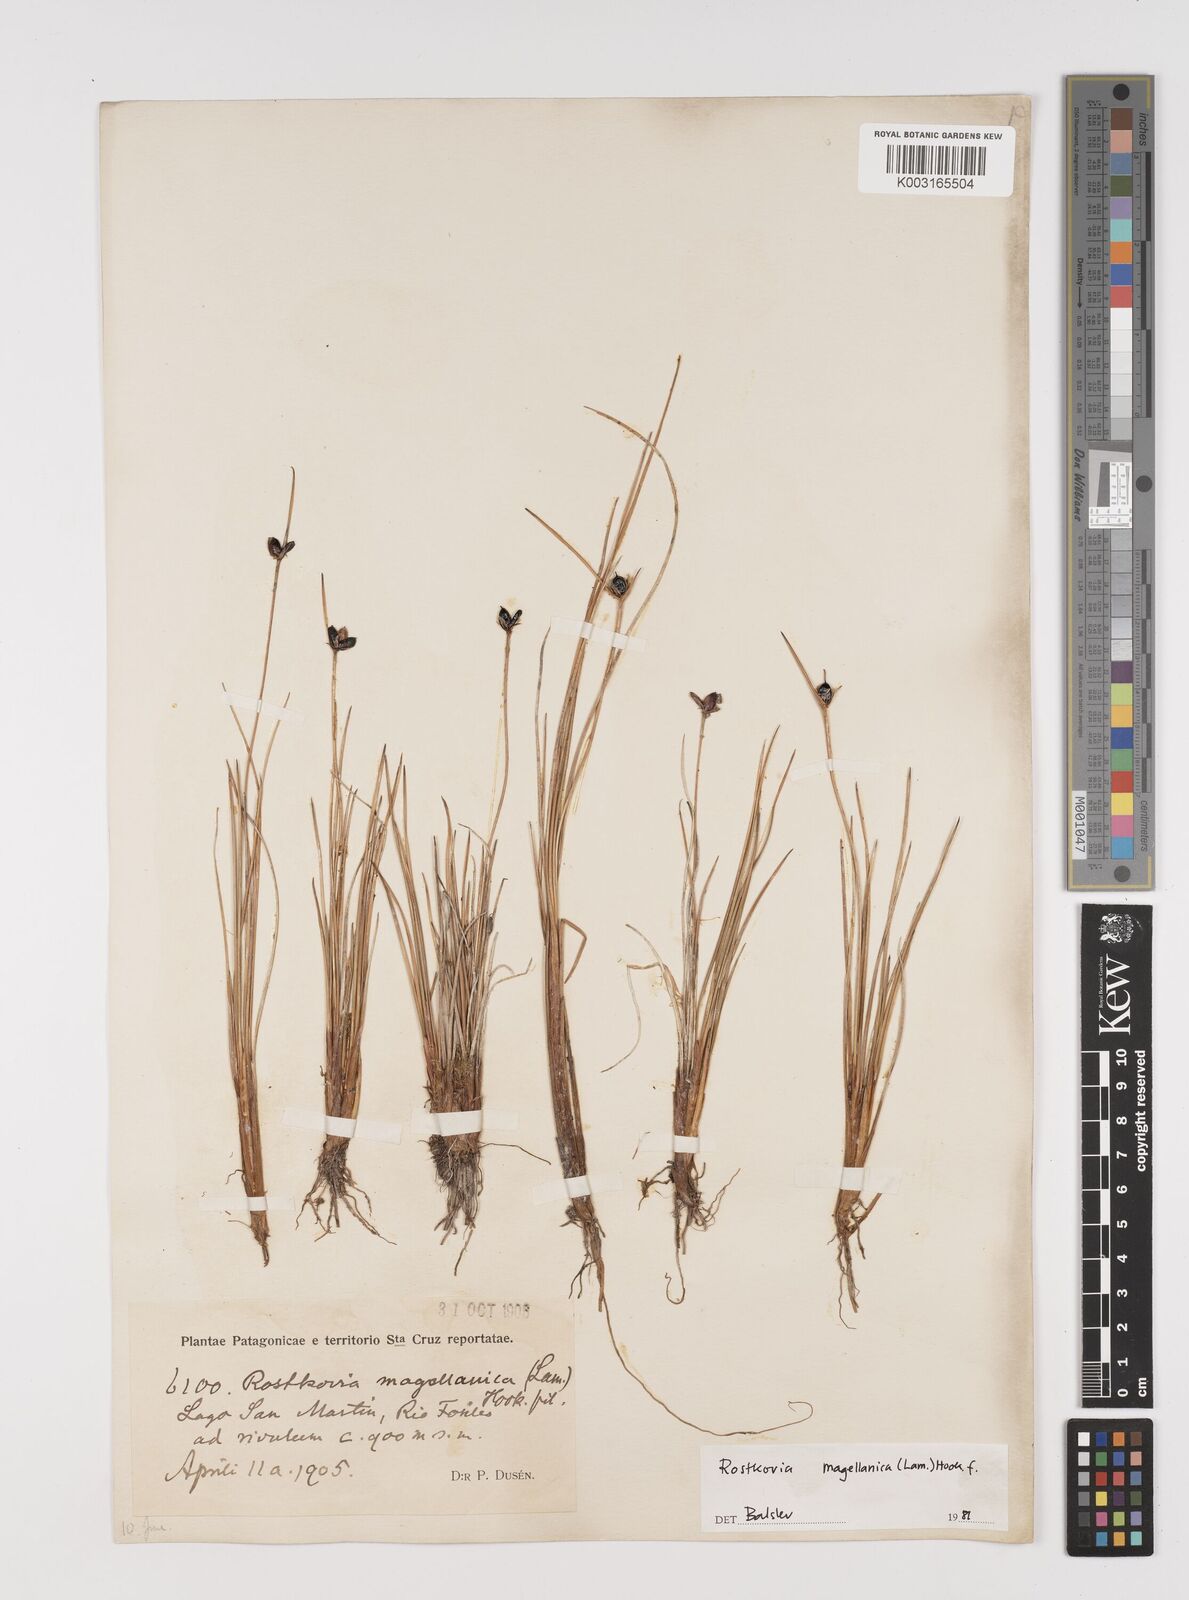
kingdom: Plantae
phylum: Tracheophyta
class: Liliopsida
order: Poales
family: Juncaceae
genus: Rostkovia
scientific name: Rostkovia magellanica
